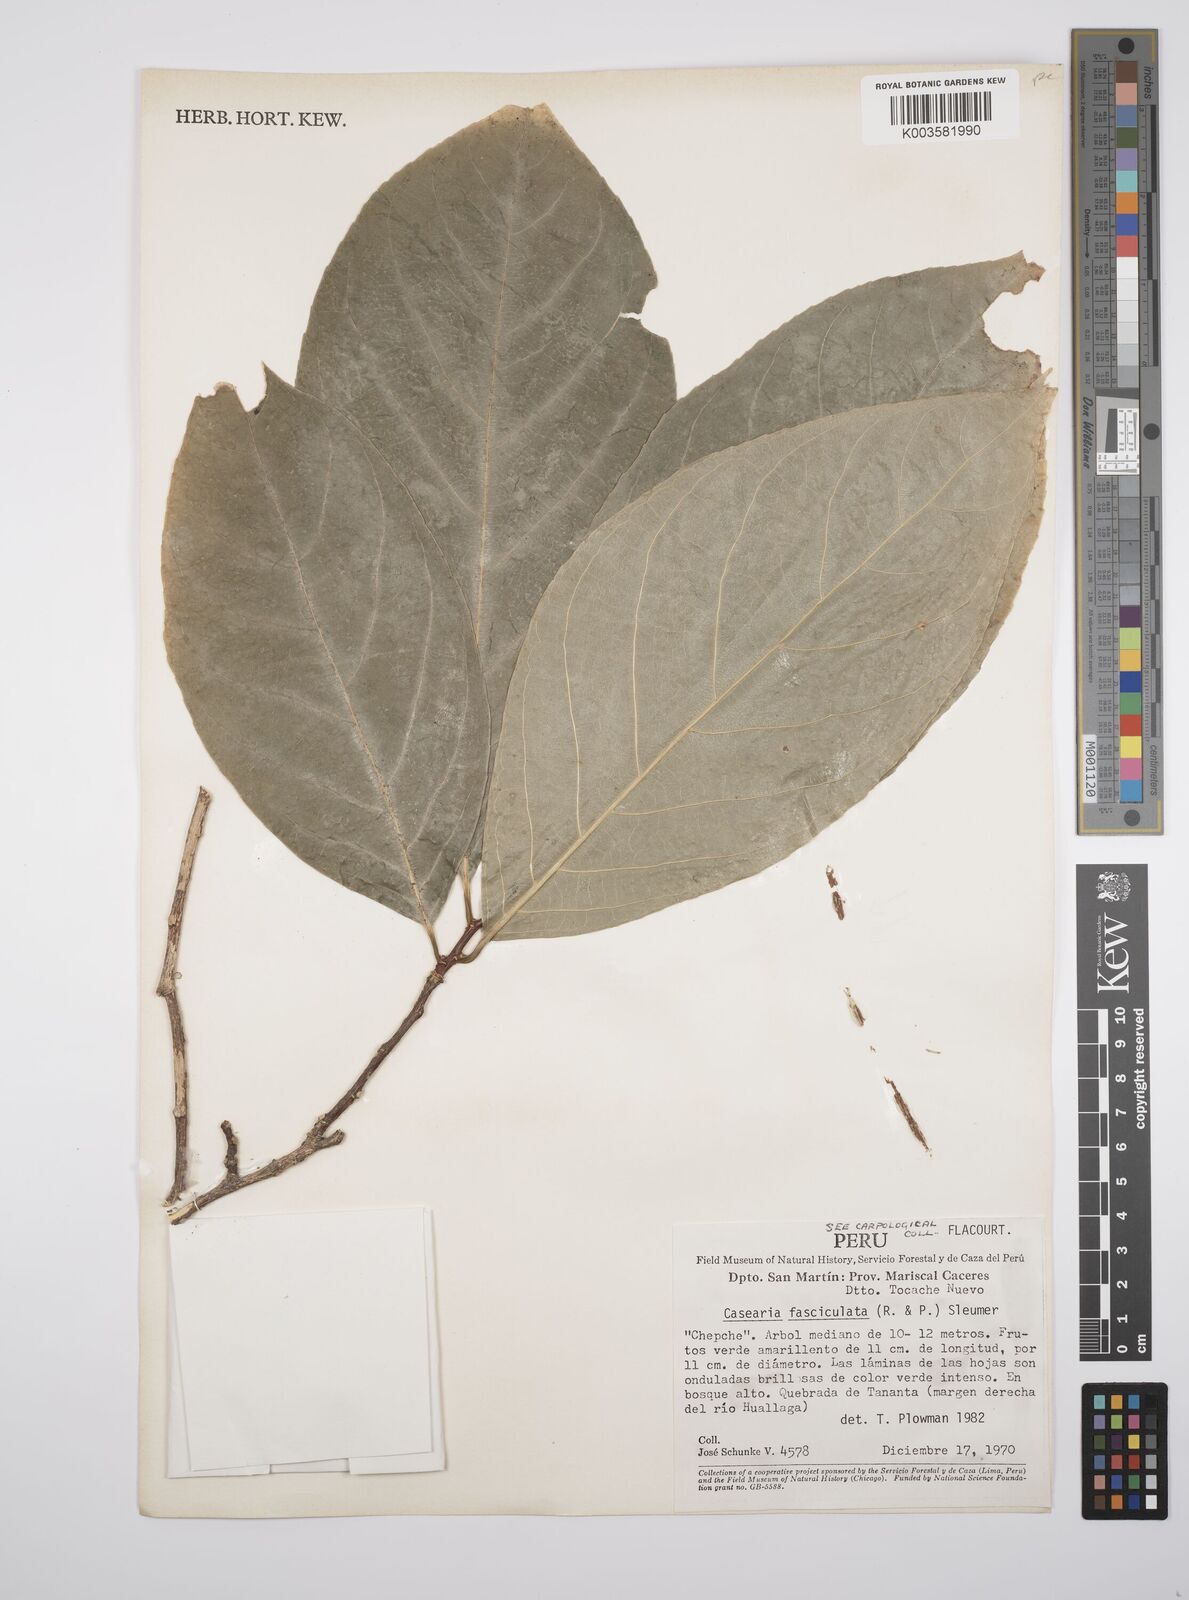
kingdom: Plantae
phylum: Tracheophyta
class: Magnoliopsida
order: Malpighiales
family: Salicaceae
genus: Casearia
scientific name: Casearia
